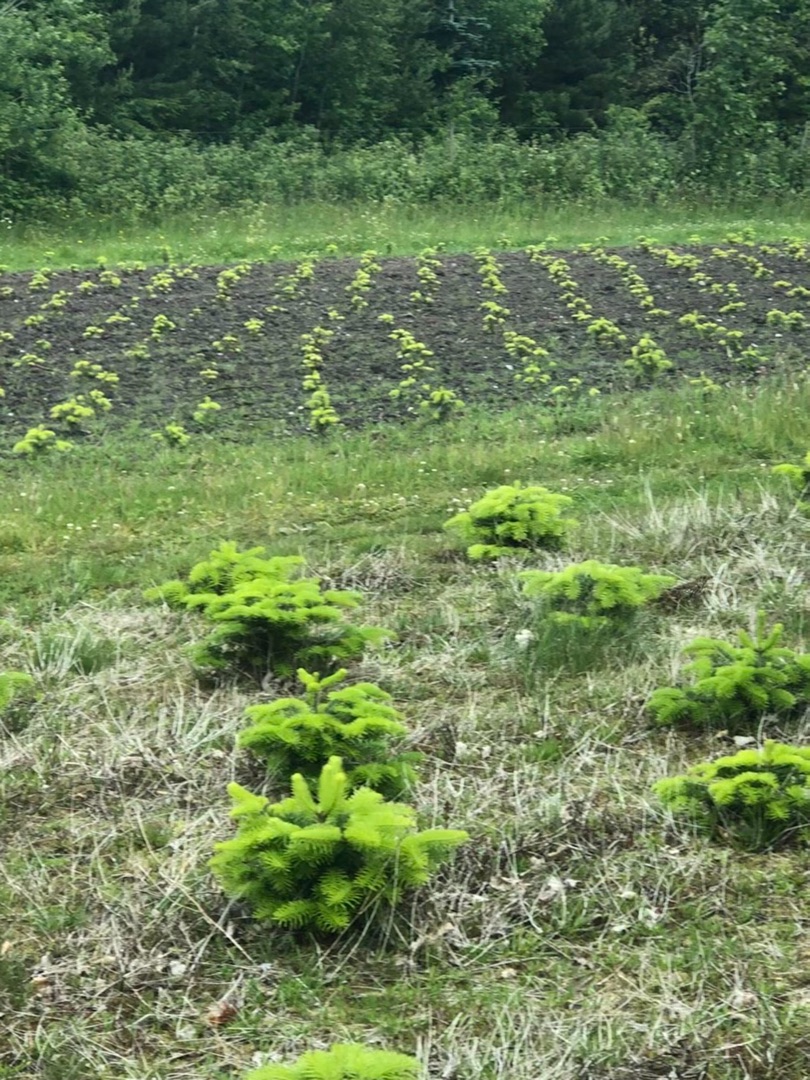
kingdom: Animalia
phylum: Chordata
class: Aves
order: Passeriformes
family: Turdidae
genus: Turdus
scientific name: Turdus philomelos
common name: Sangdrossel
